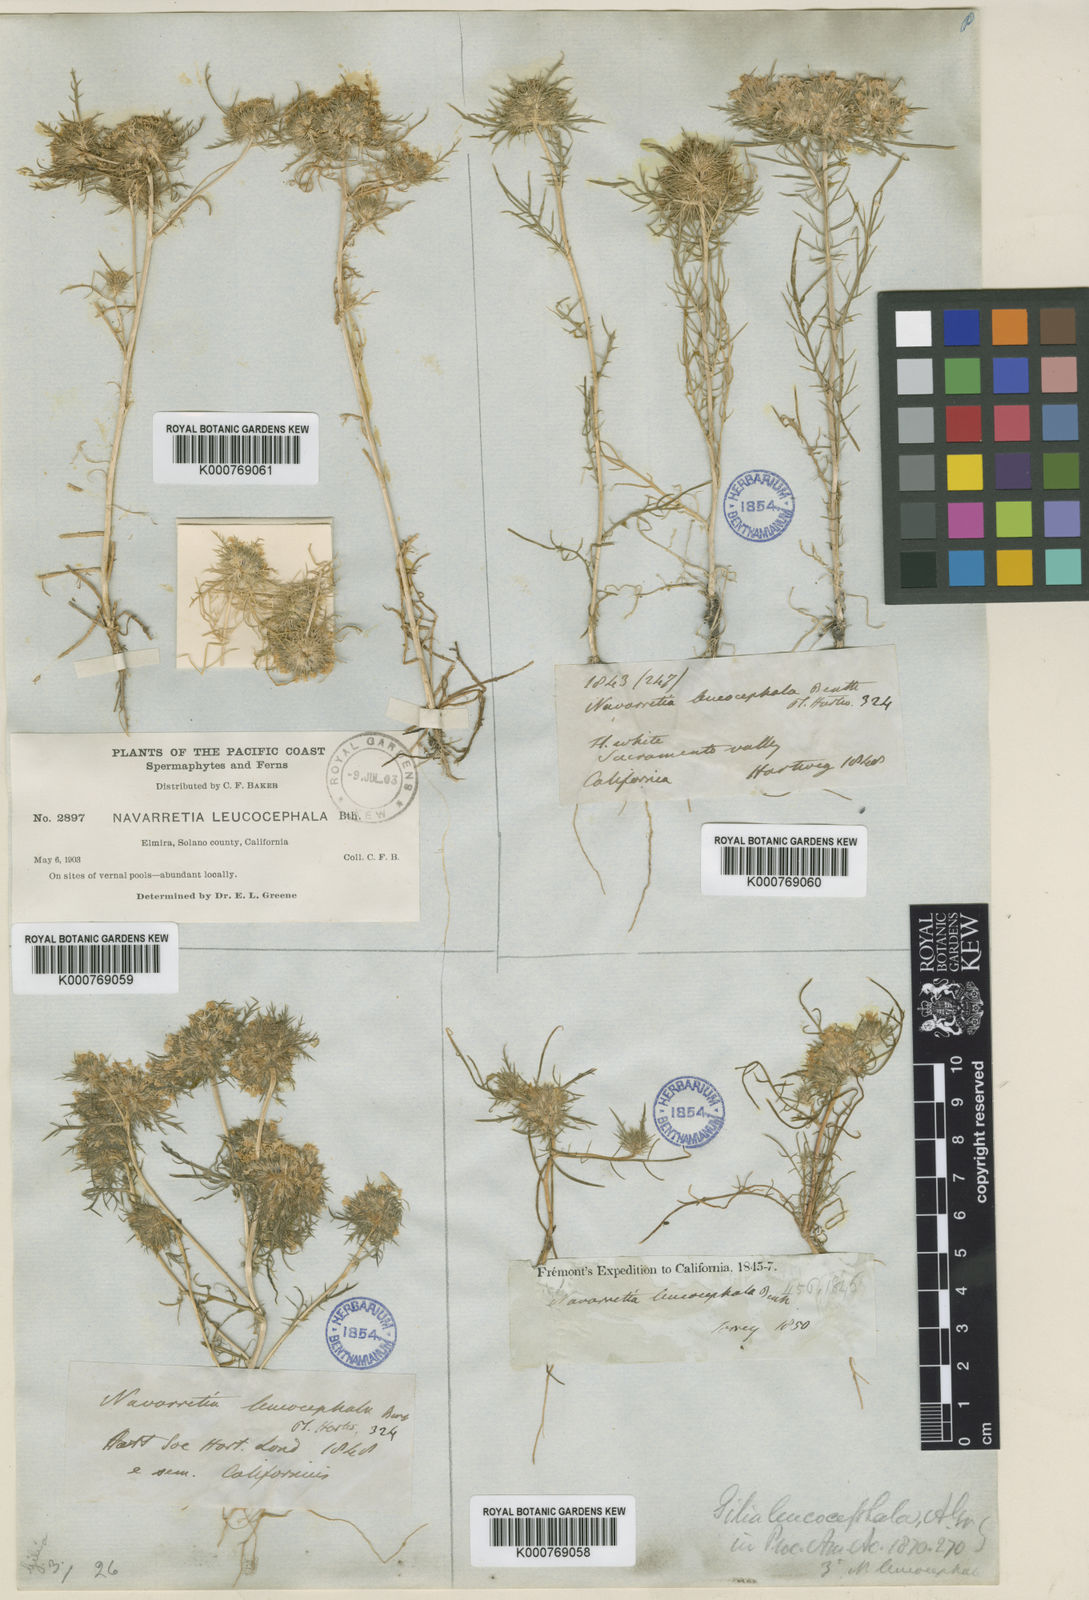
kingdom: Plantae
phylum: Tracheophyta
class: Magnoliopsida
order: Ericales
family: Polemoniaceae
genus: Navarretia
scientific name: Navarretia leucocephala
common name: White-flowered navarretia
